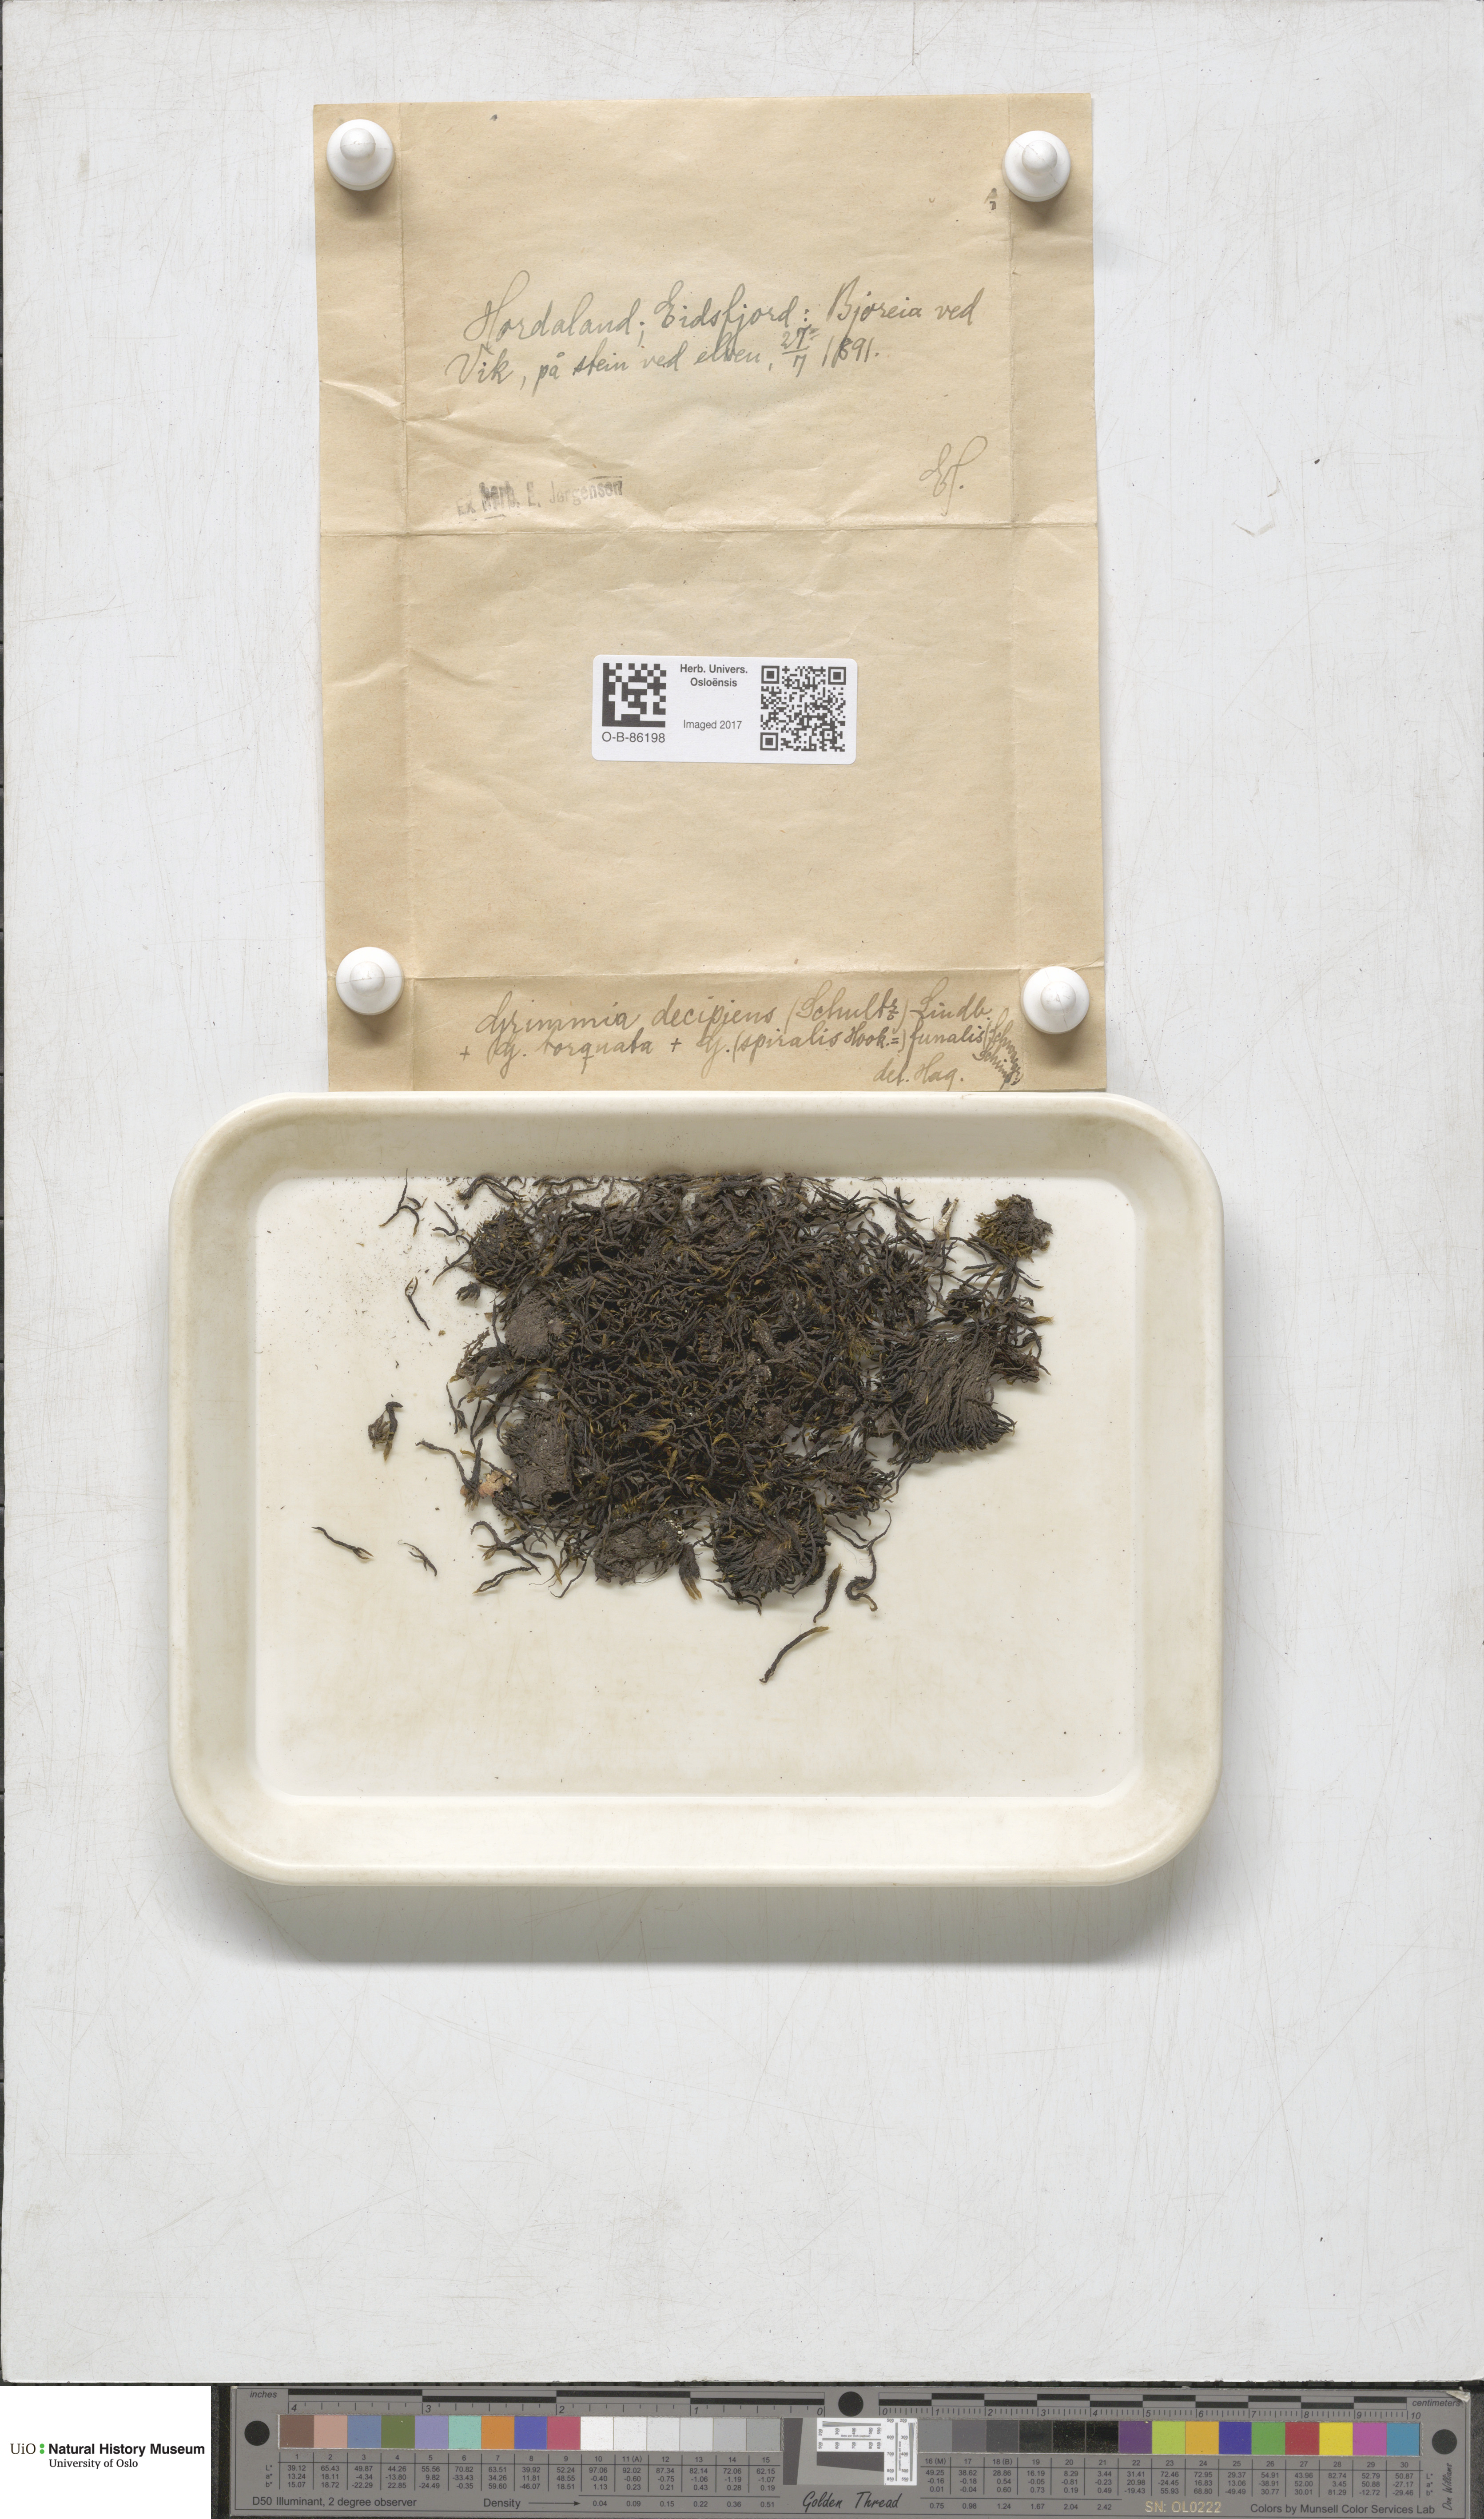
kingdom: Plantae
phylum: Bryophyta
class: Bryopsida
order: Grimmiales
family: Grimmiaceae
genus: Grimmia
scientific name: Grimmia decipiens
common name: Great grimmia
